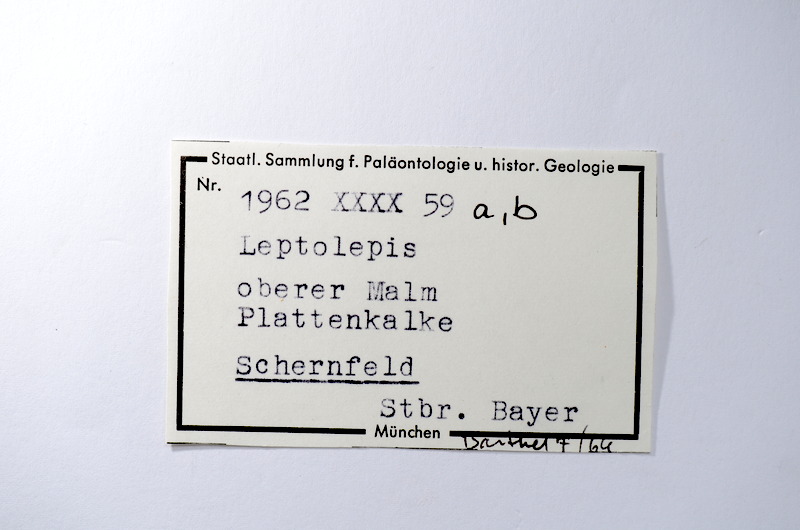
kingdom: Animalia
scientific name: Animalia
